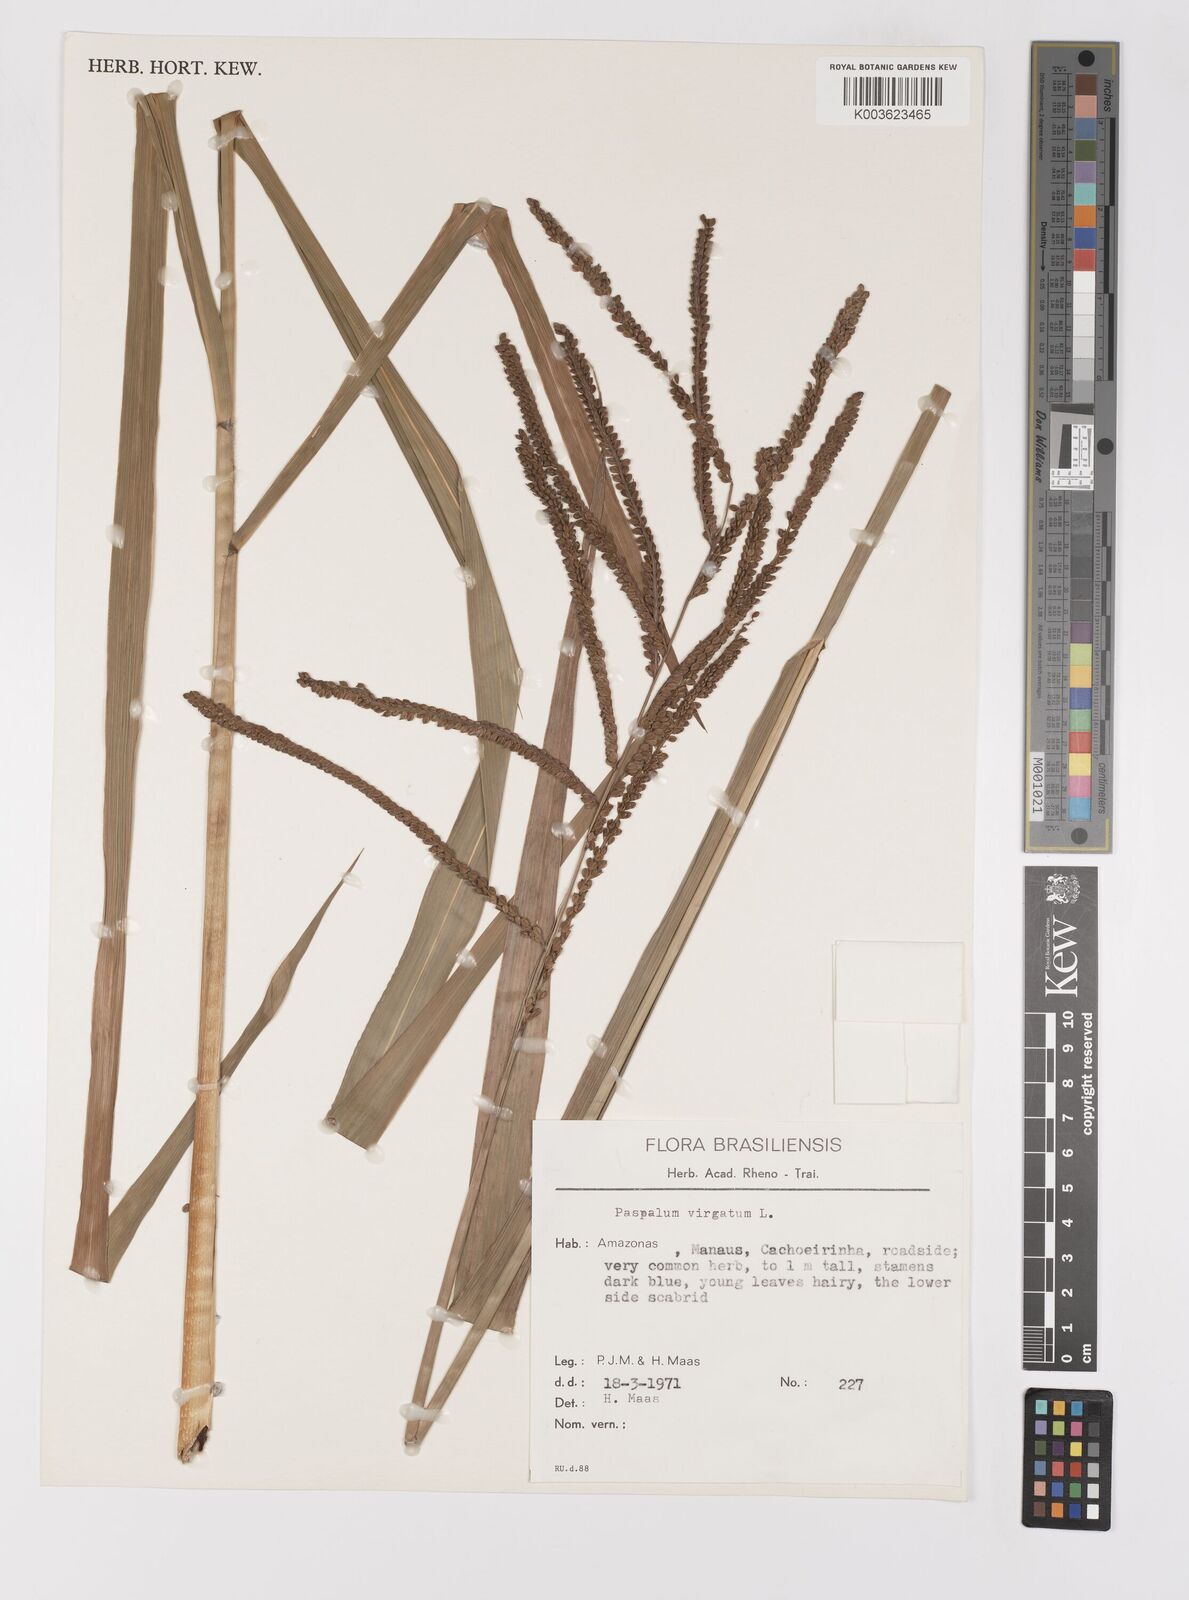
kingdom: Plantae
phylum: Tracheophyta
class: Liliopsida
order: Poales
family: Poaceae
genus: Paspalum
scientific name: Paspalum virgatum
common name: Talquezal
